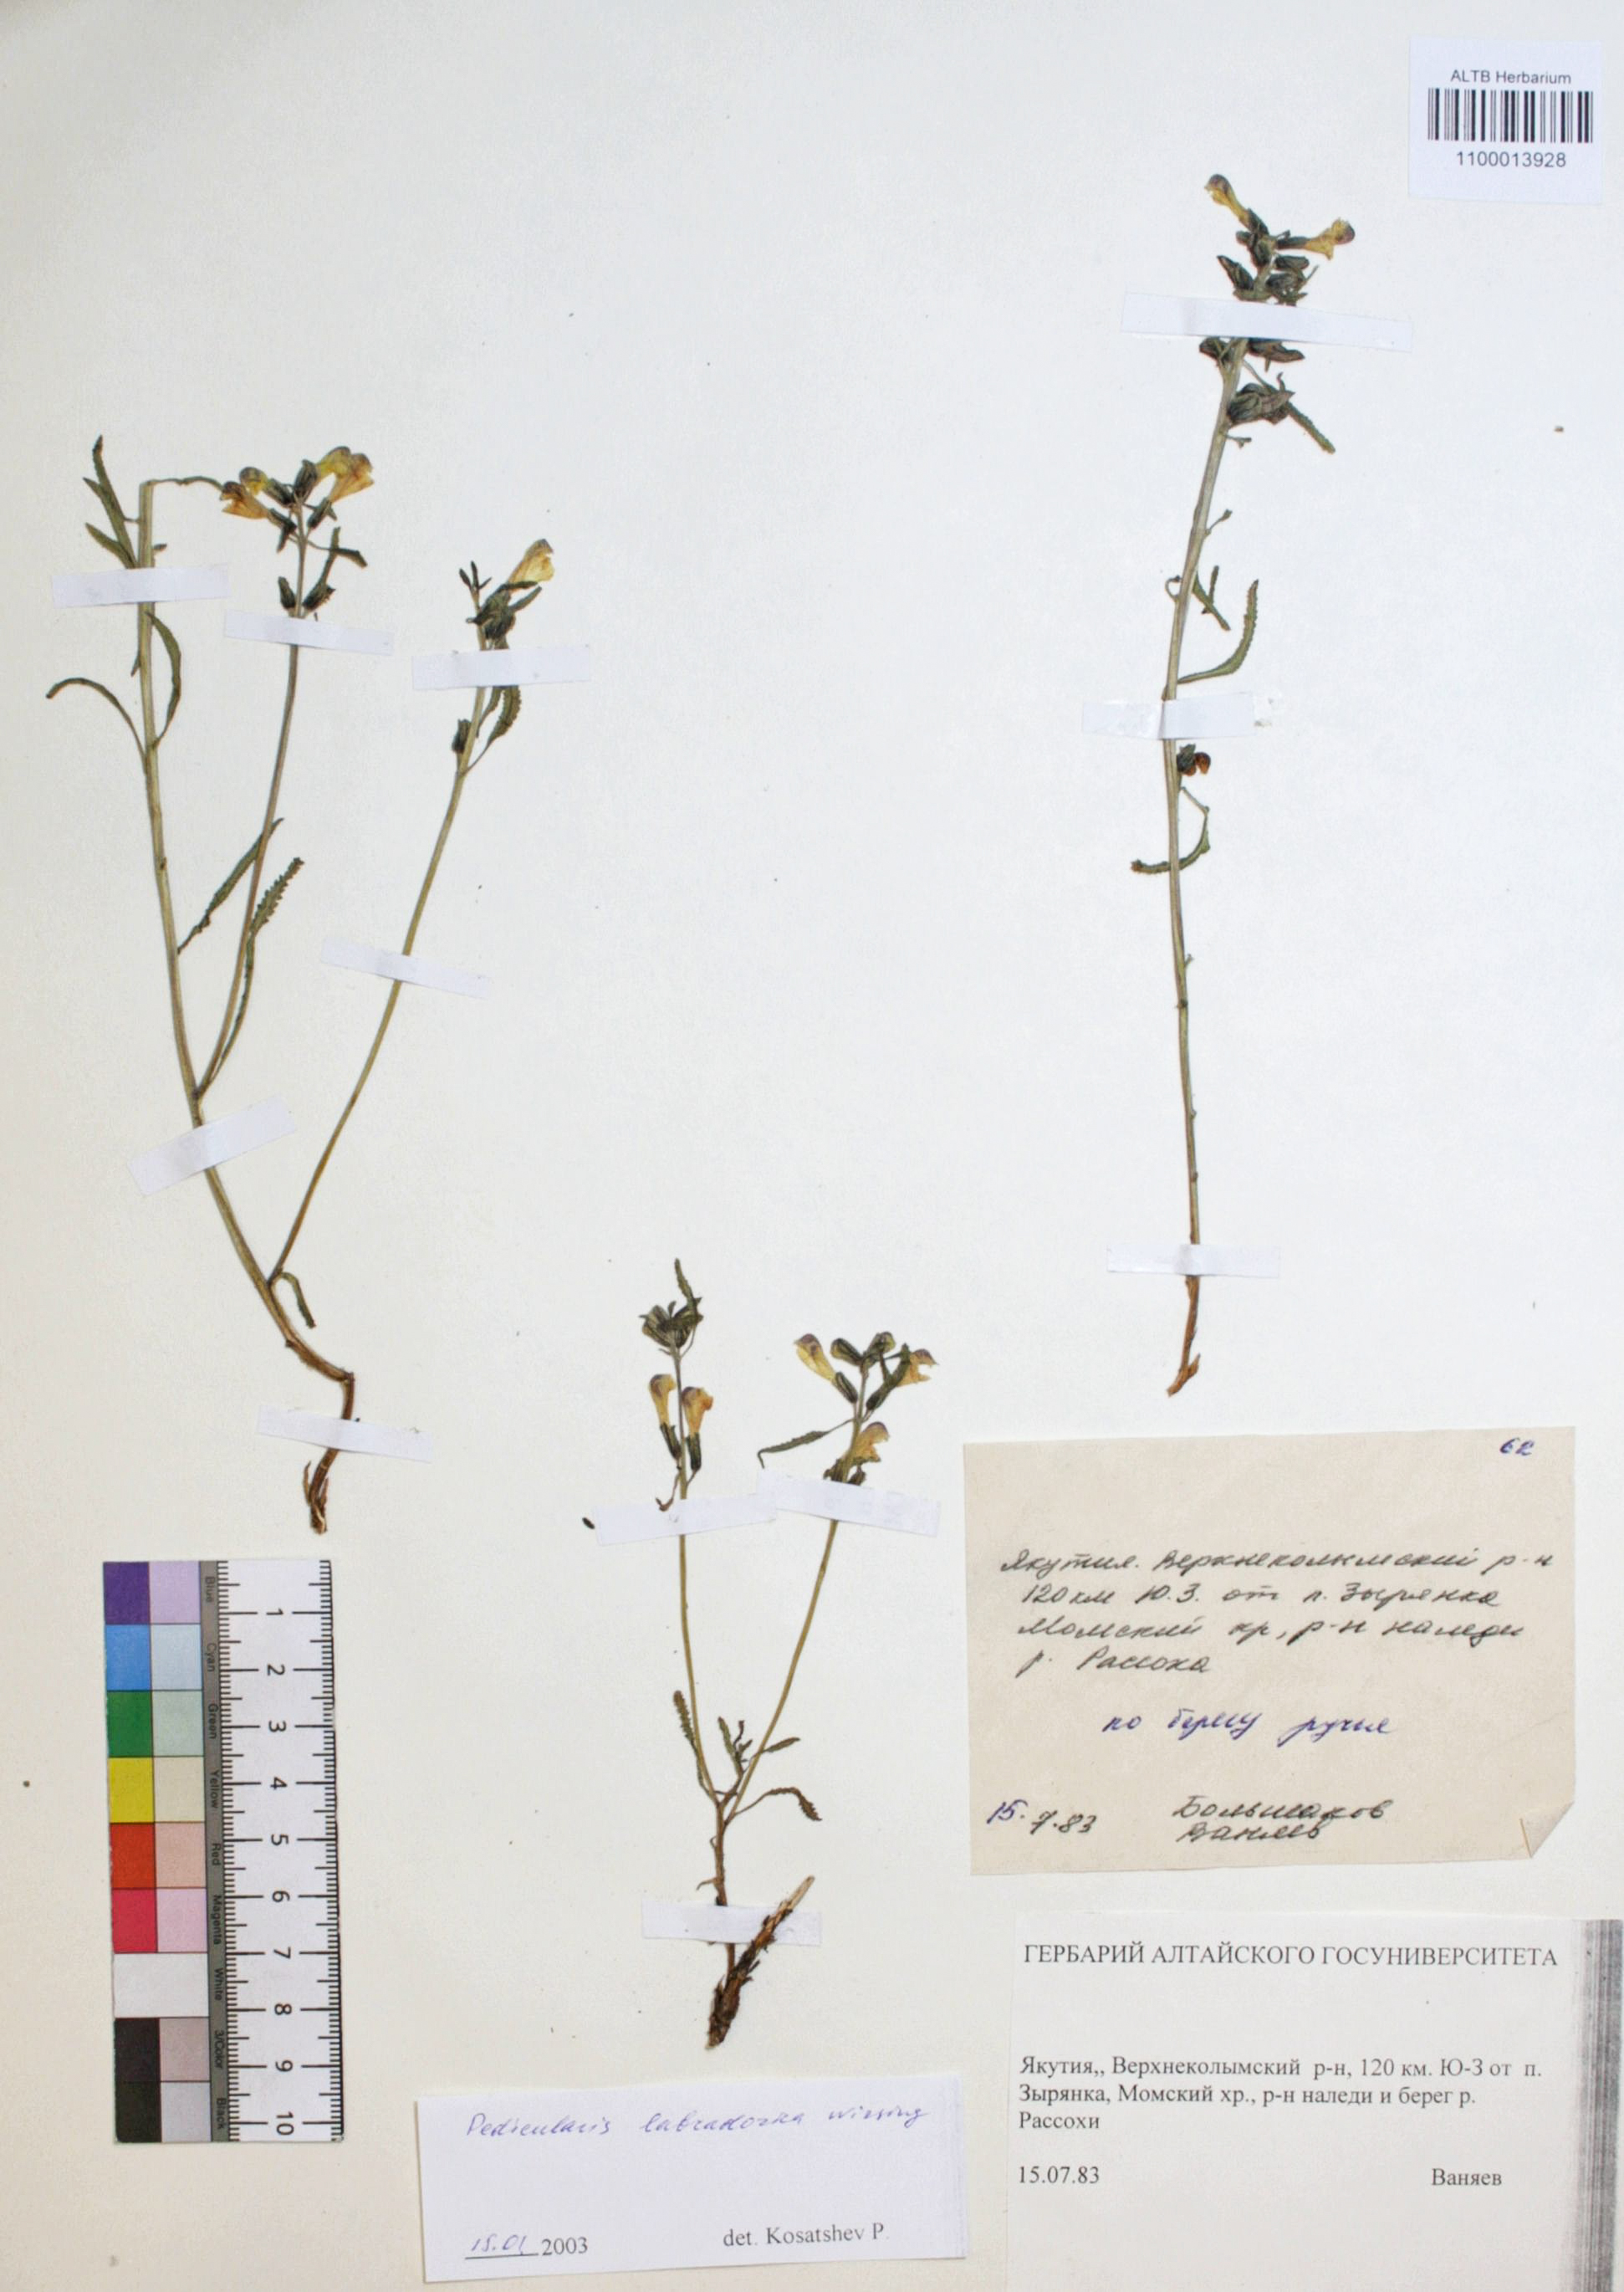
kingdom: Plantae
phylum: Tracheophyta
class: Magnoliopsida
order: Lamiales
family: Orobanchaceae
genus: Pedicularis
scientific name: Pedicularis labradorica
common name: Labrador lousewort
